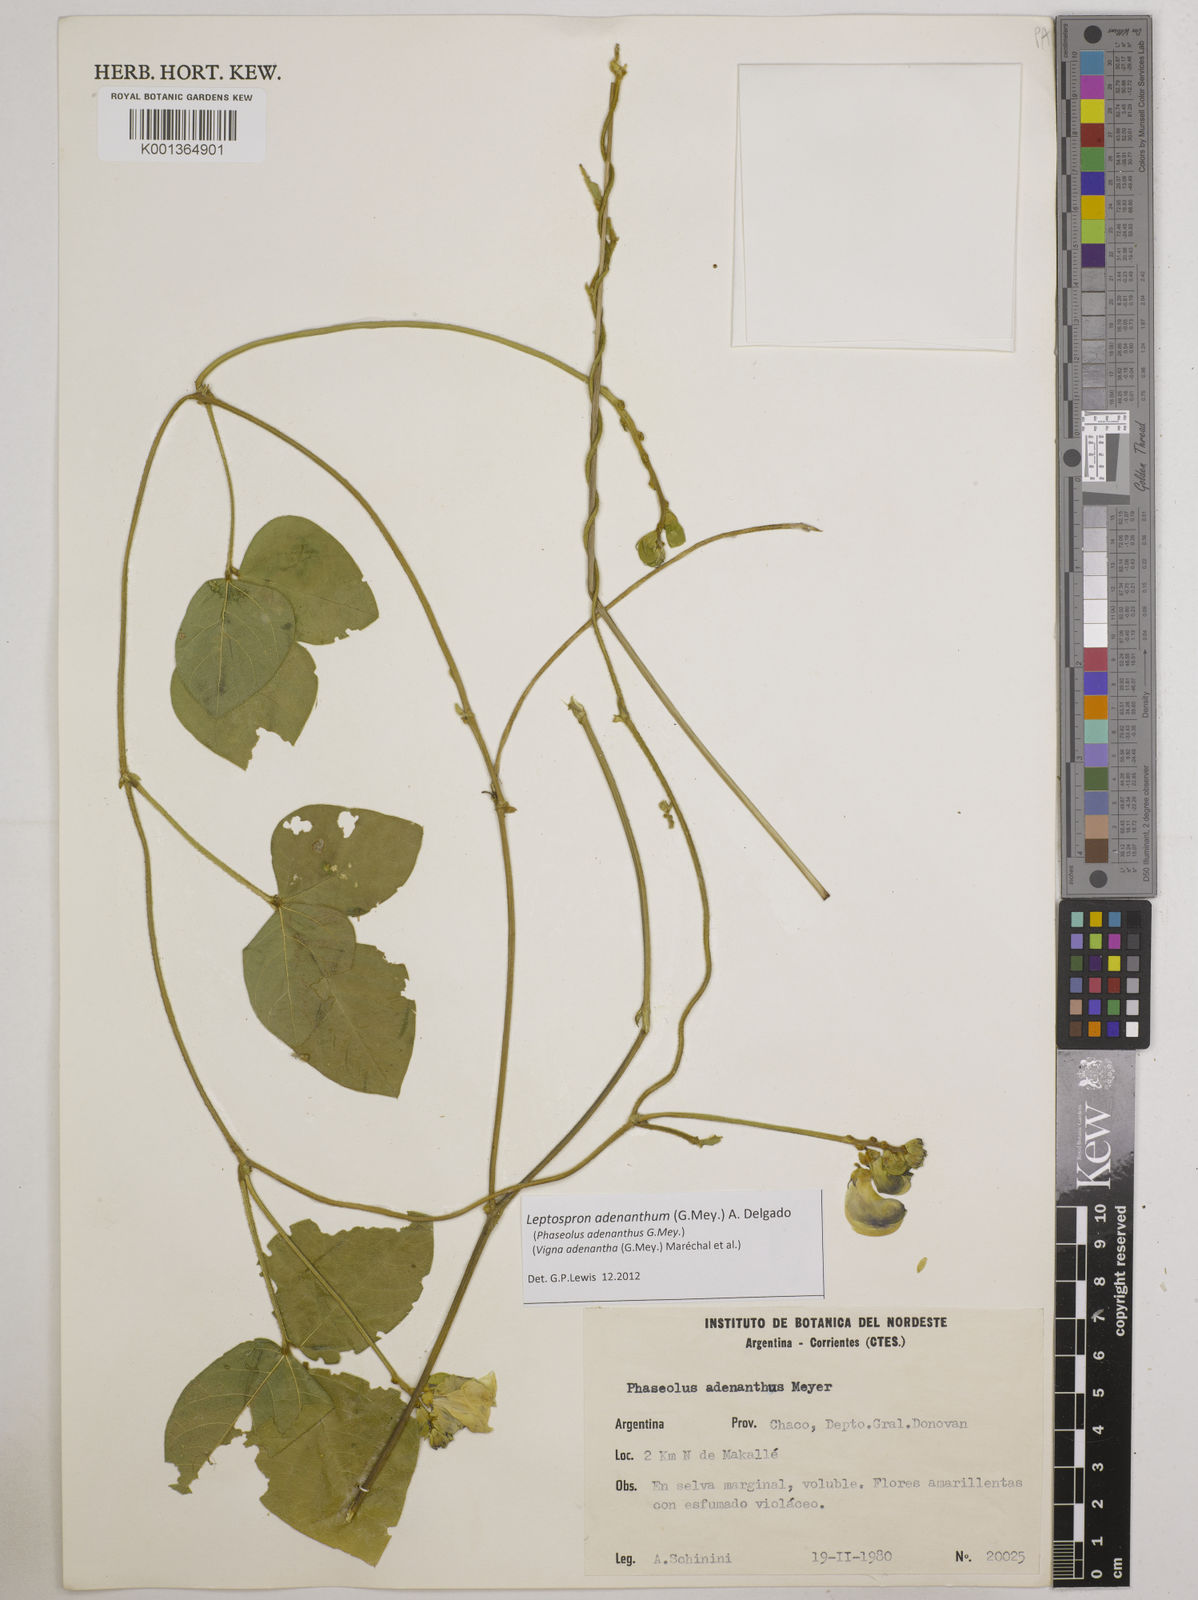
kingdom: Plantae
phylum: Tracheophyta
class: Magnoliopsida
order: Fabales
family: Fabaceae
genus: Leptospron
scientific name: Leptospron adenanthum
